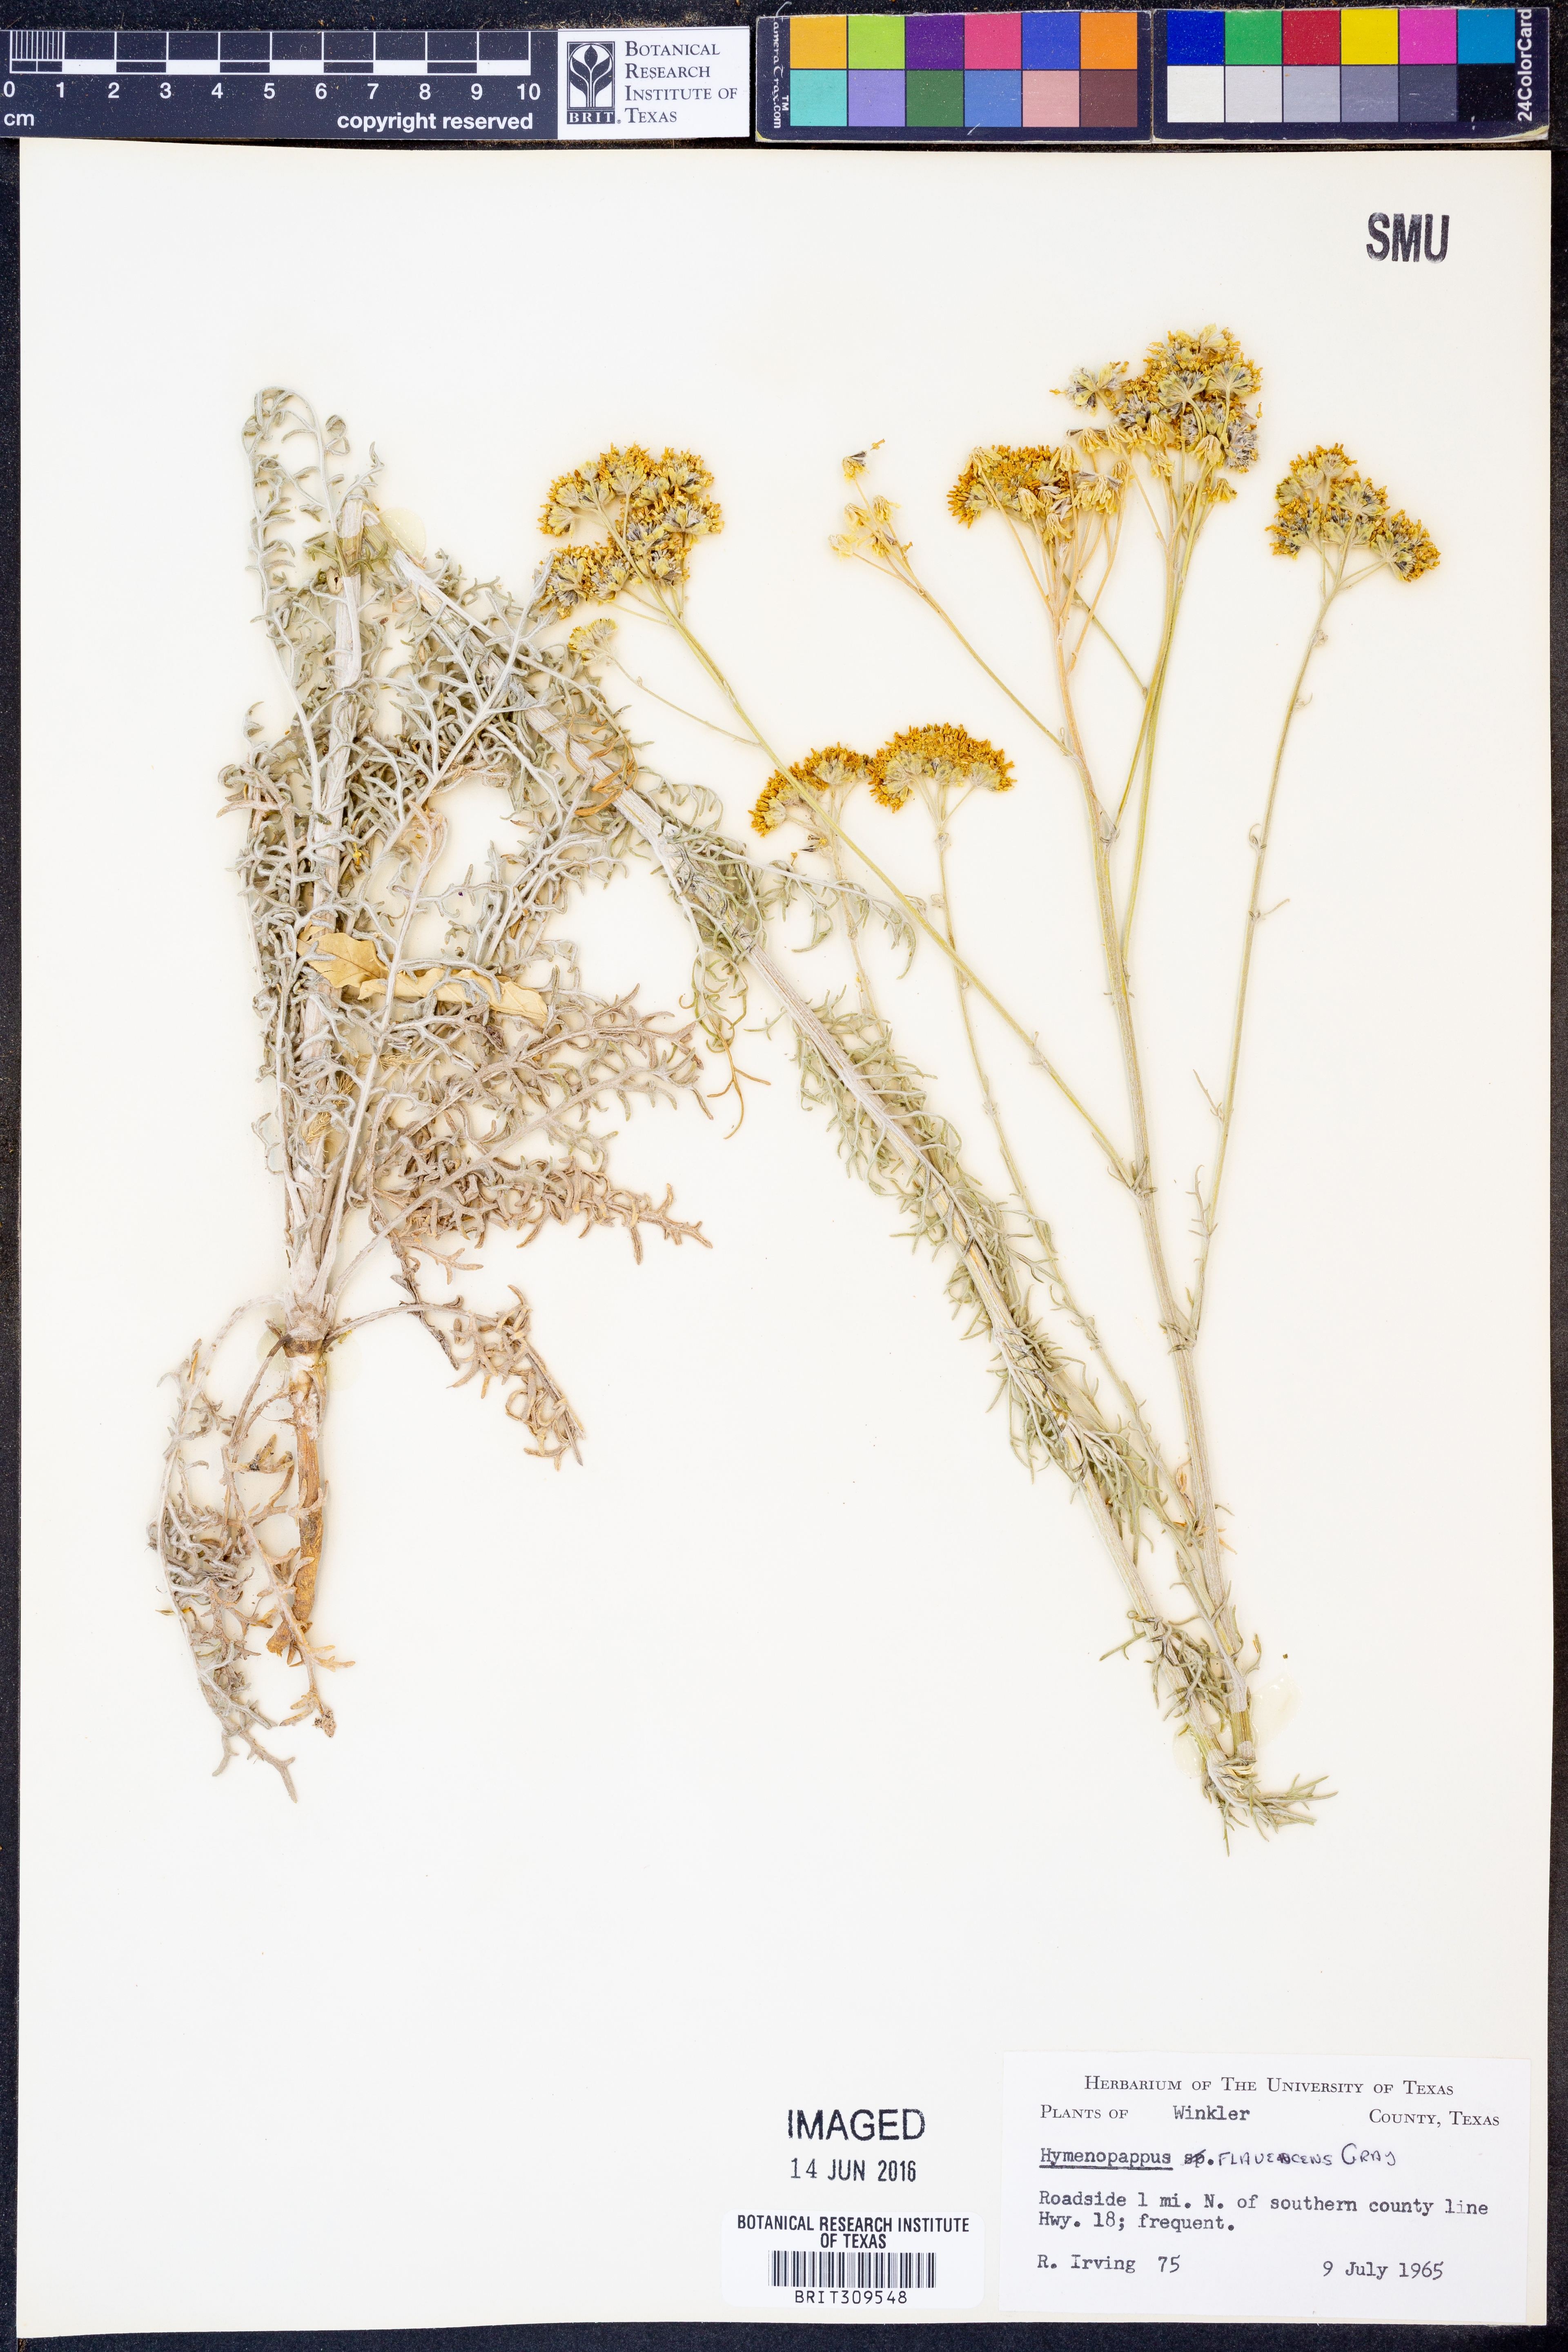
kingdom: Plantae
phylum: Tracheophyta
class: Magnoliopsida
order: Asterales
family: Asteraceae
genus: Hymenopappus
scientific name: Hymenopappus flavescens
